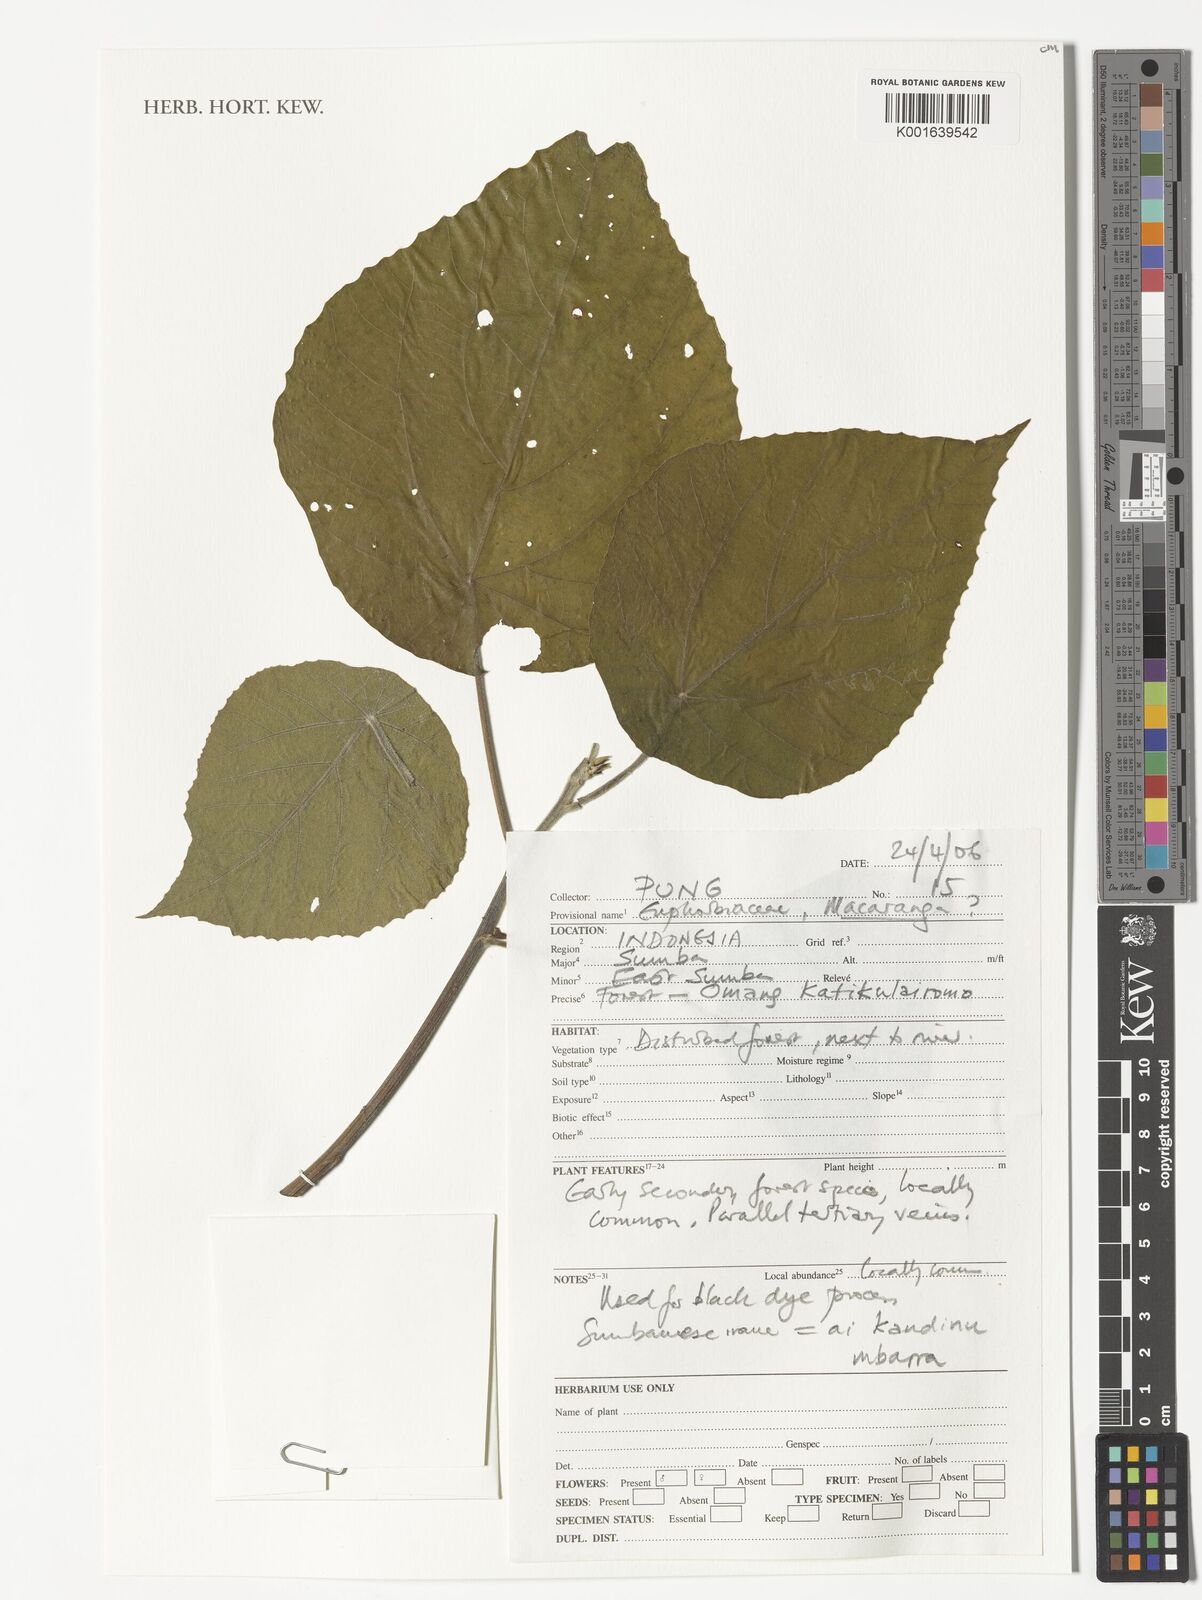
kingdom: Plantae
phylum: Tracheophyta
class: Magnoliopsida
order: Malpighiales
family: Euphorbiaceae
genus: Macaranga
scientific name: Macaranga
